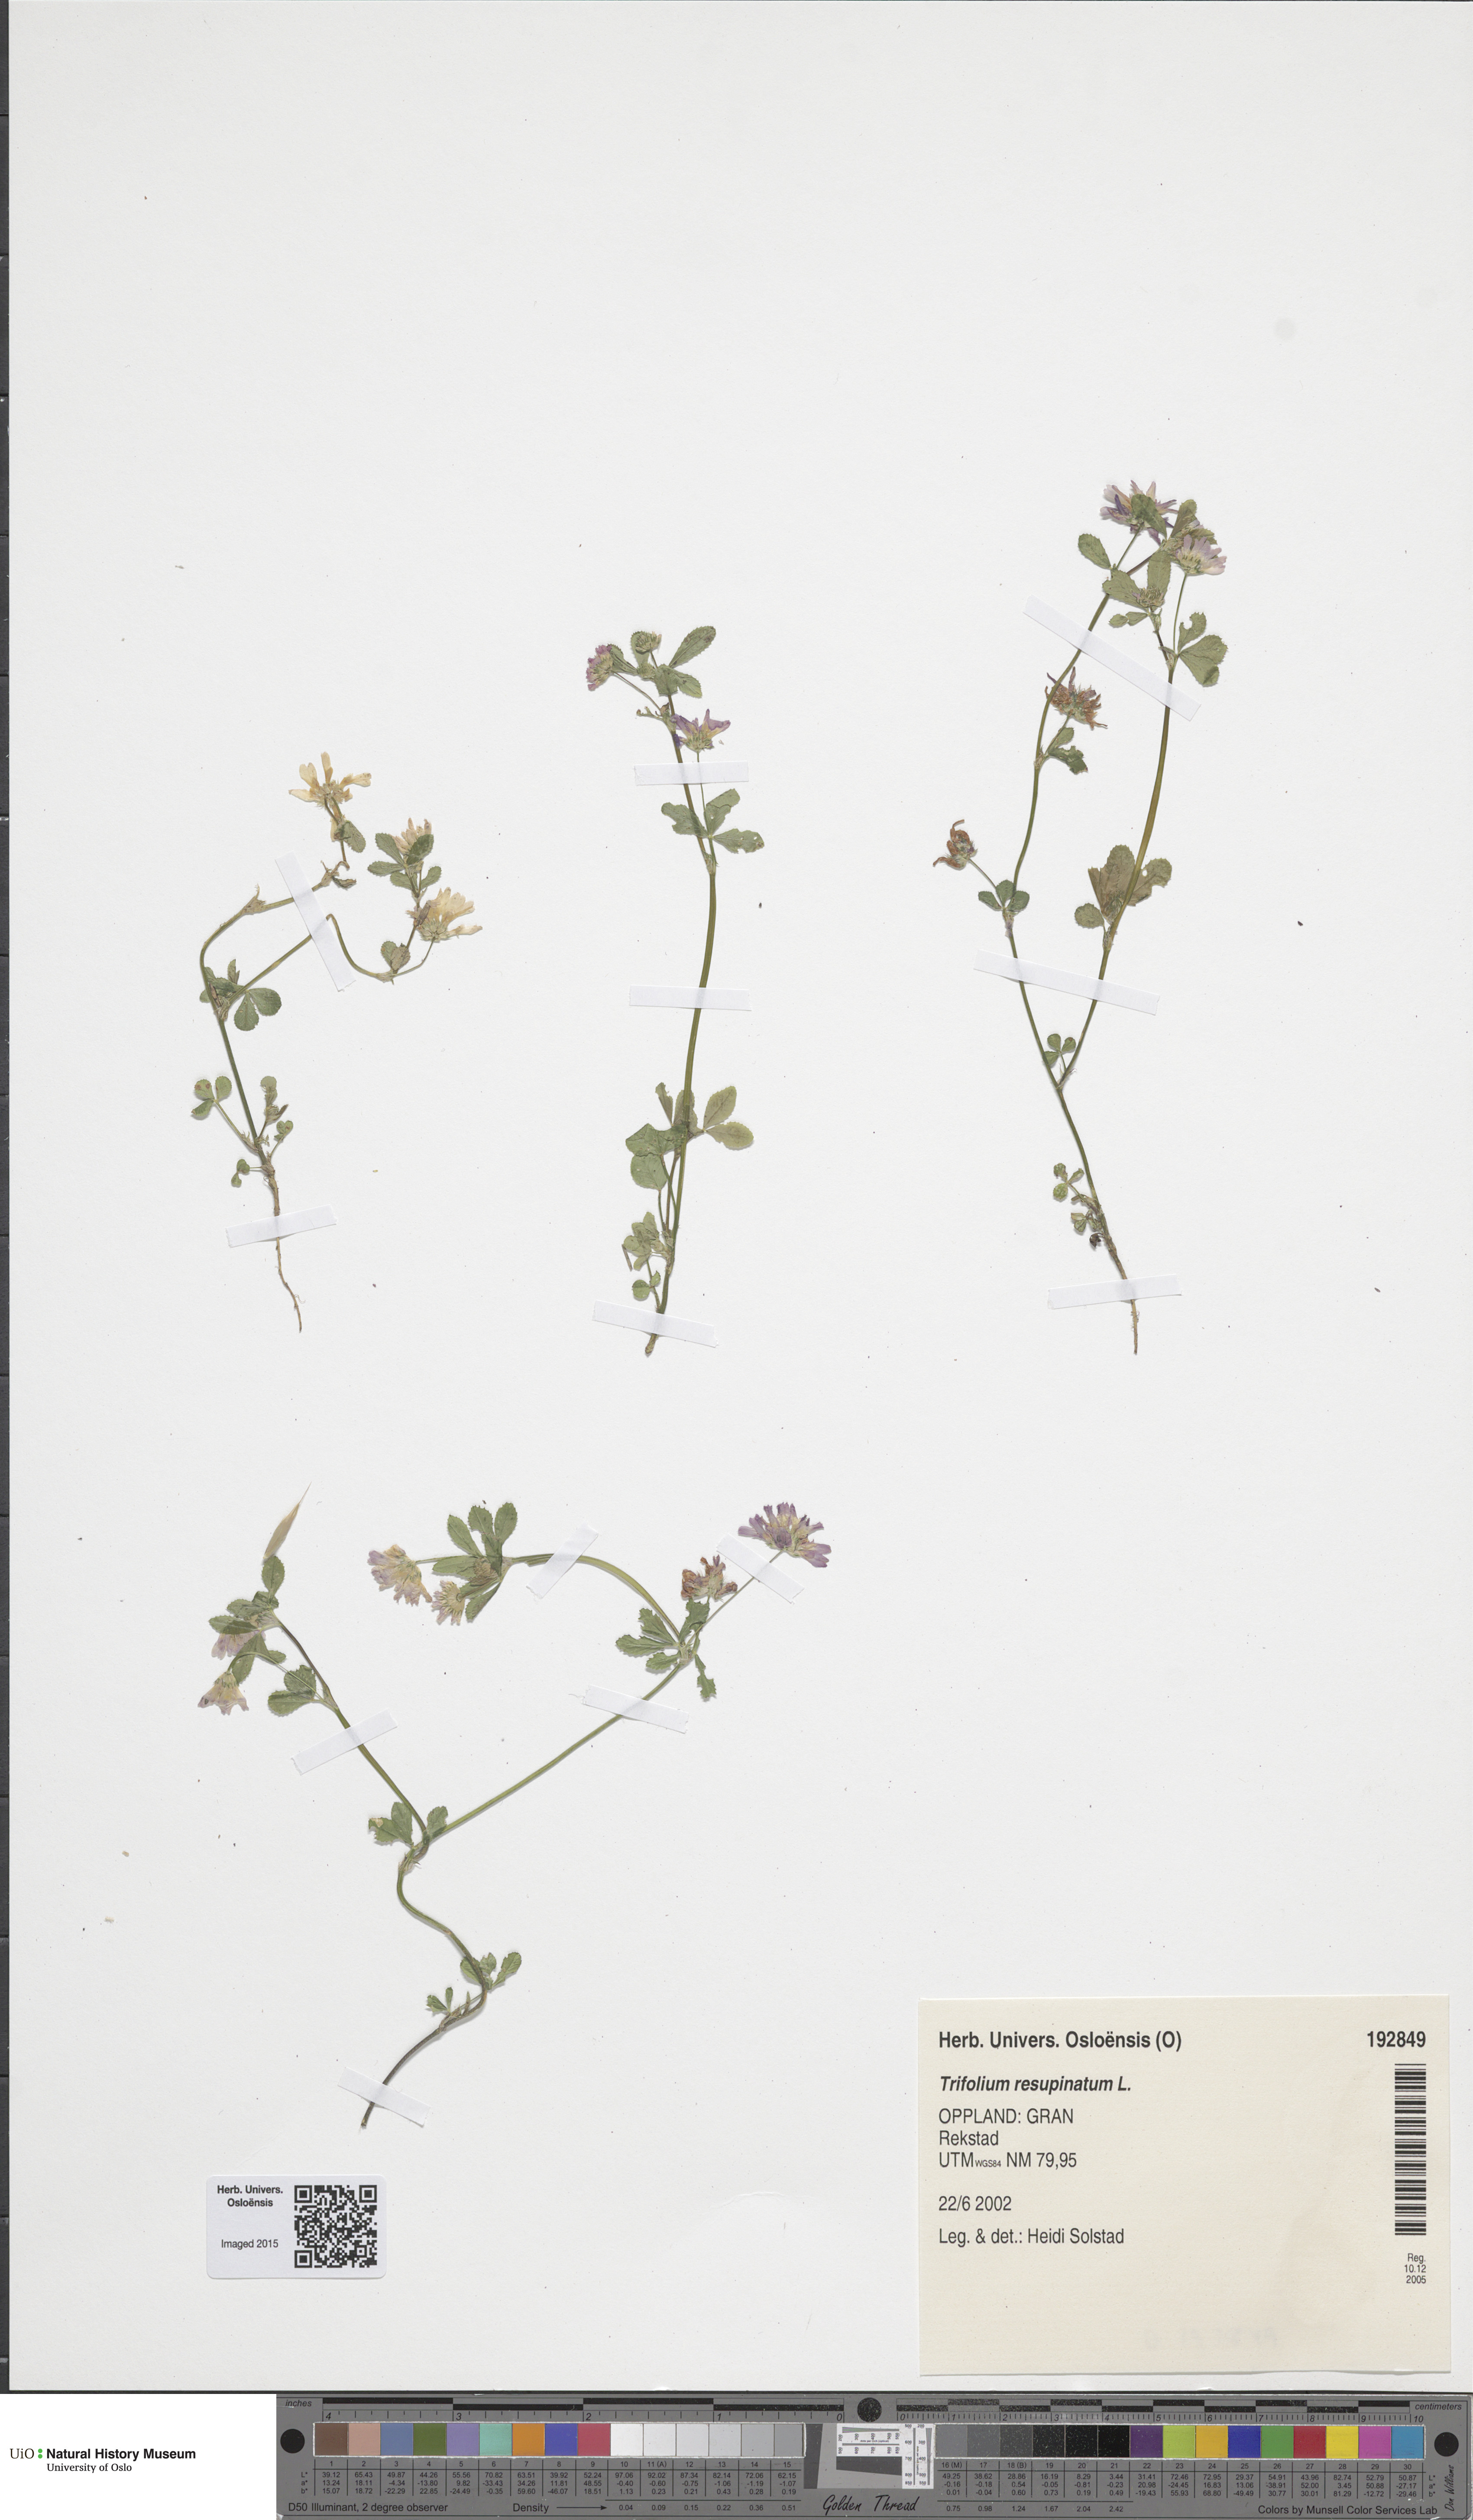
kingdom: Plantae
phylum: Tracheophyta
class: Magnoliopsida
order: Fabales
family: Fabaceae
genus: Trifolium
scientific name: Trifolium resupinatum
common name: Reversed clover
